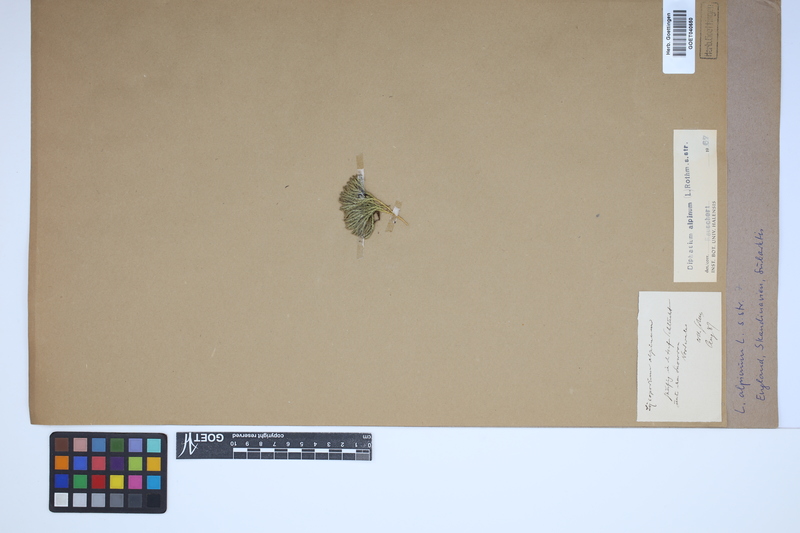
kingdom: Plantae
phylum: Tracheophyta
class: Lycopodiopsida
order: Lycopodiales
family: Lycopodiaceae
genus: Diphasiastrum
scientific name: Diphasiastrum alpinum
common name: Alpine clubmoss
